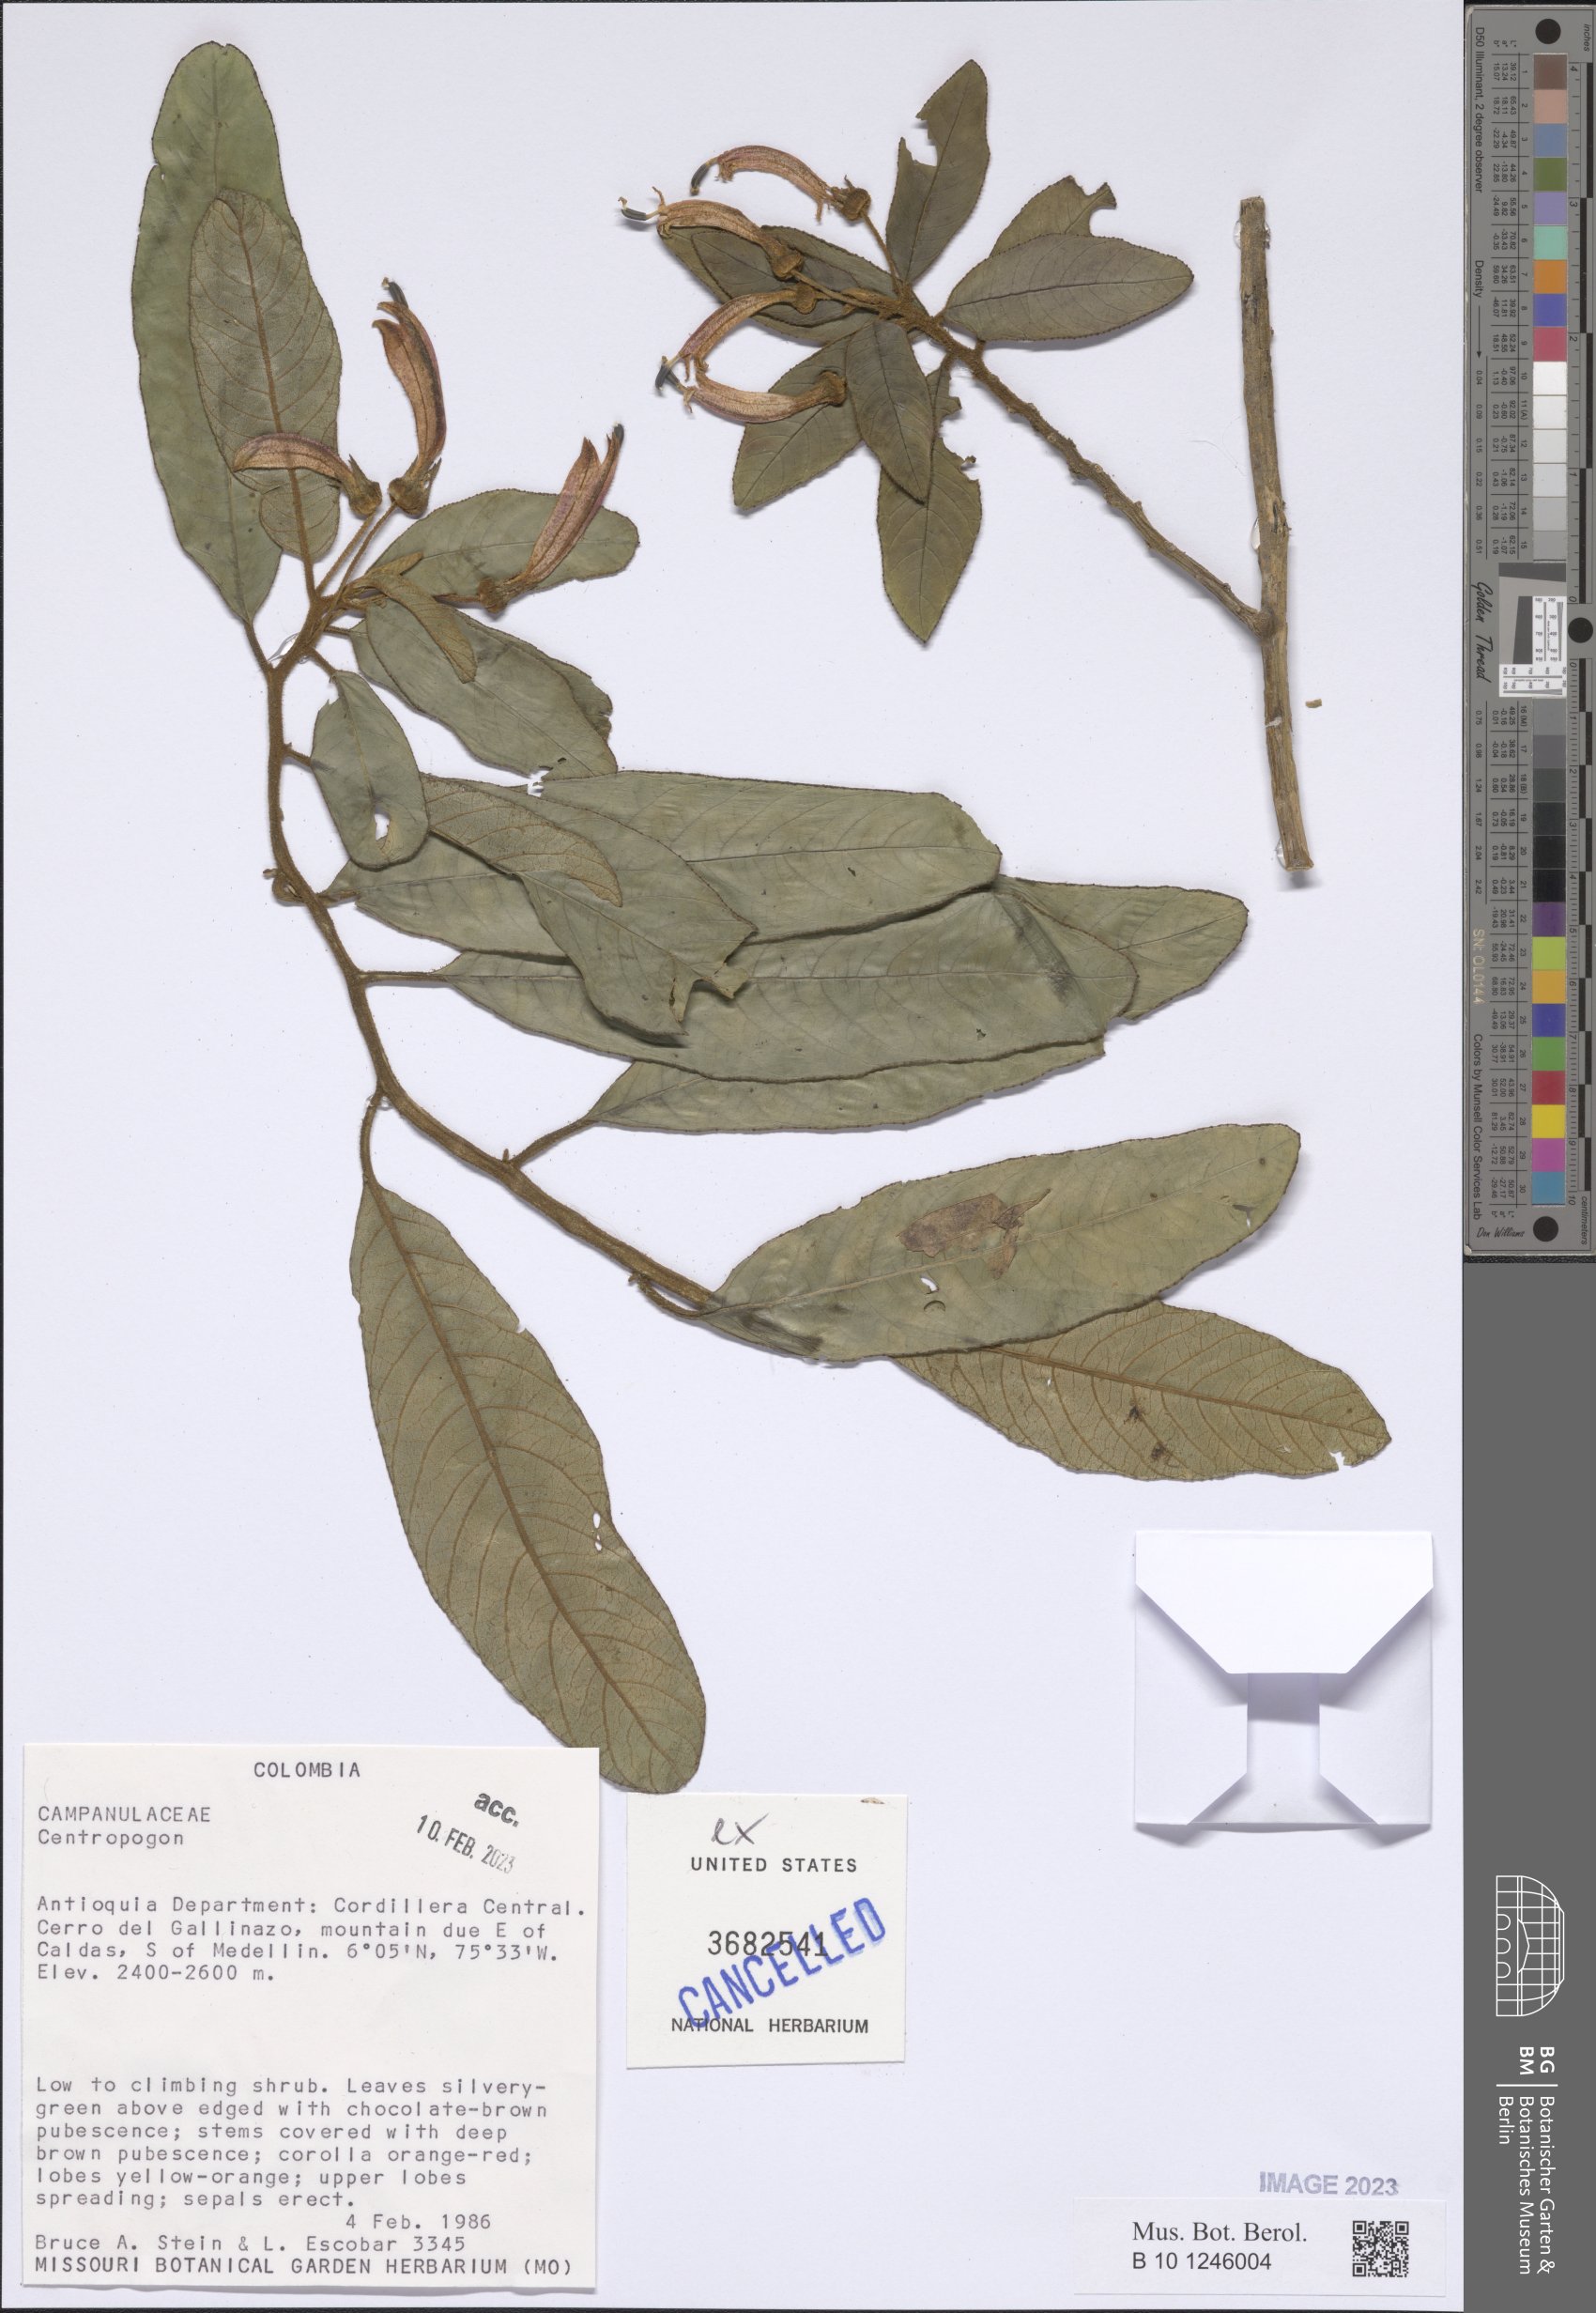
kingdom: Plantae
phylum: Tracheophyta
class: Magnoliopsida
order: Asterales
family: Campanulaceae
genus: Centropogon
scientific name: Centropogon
